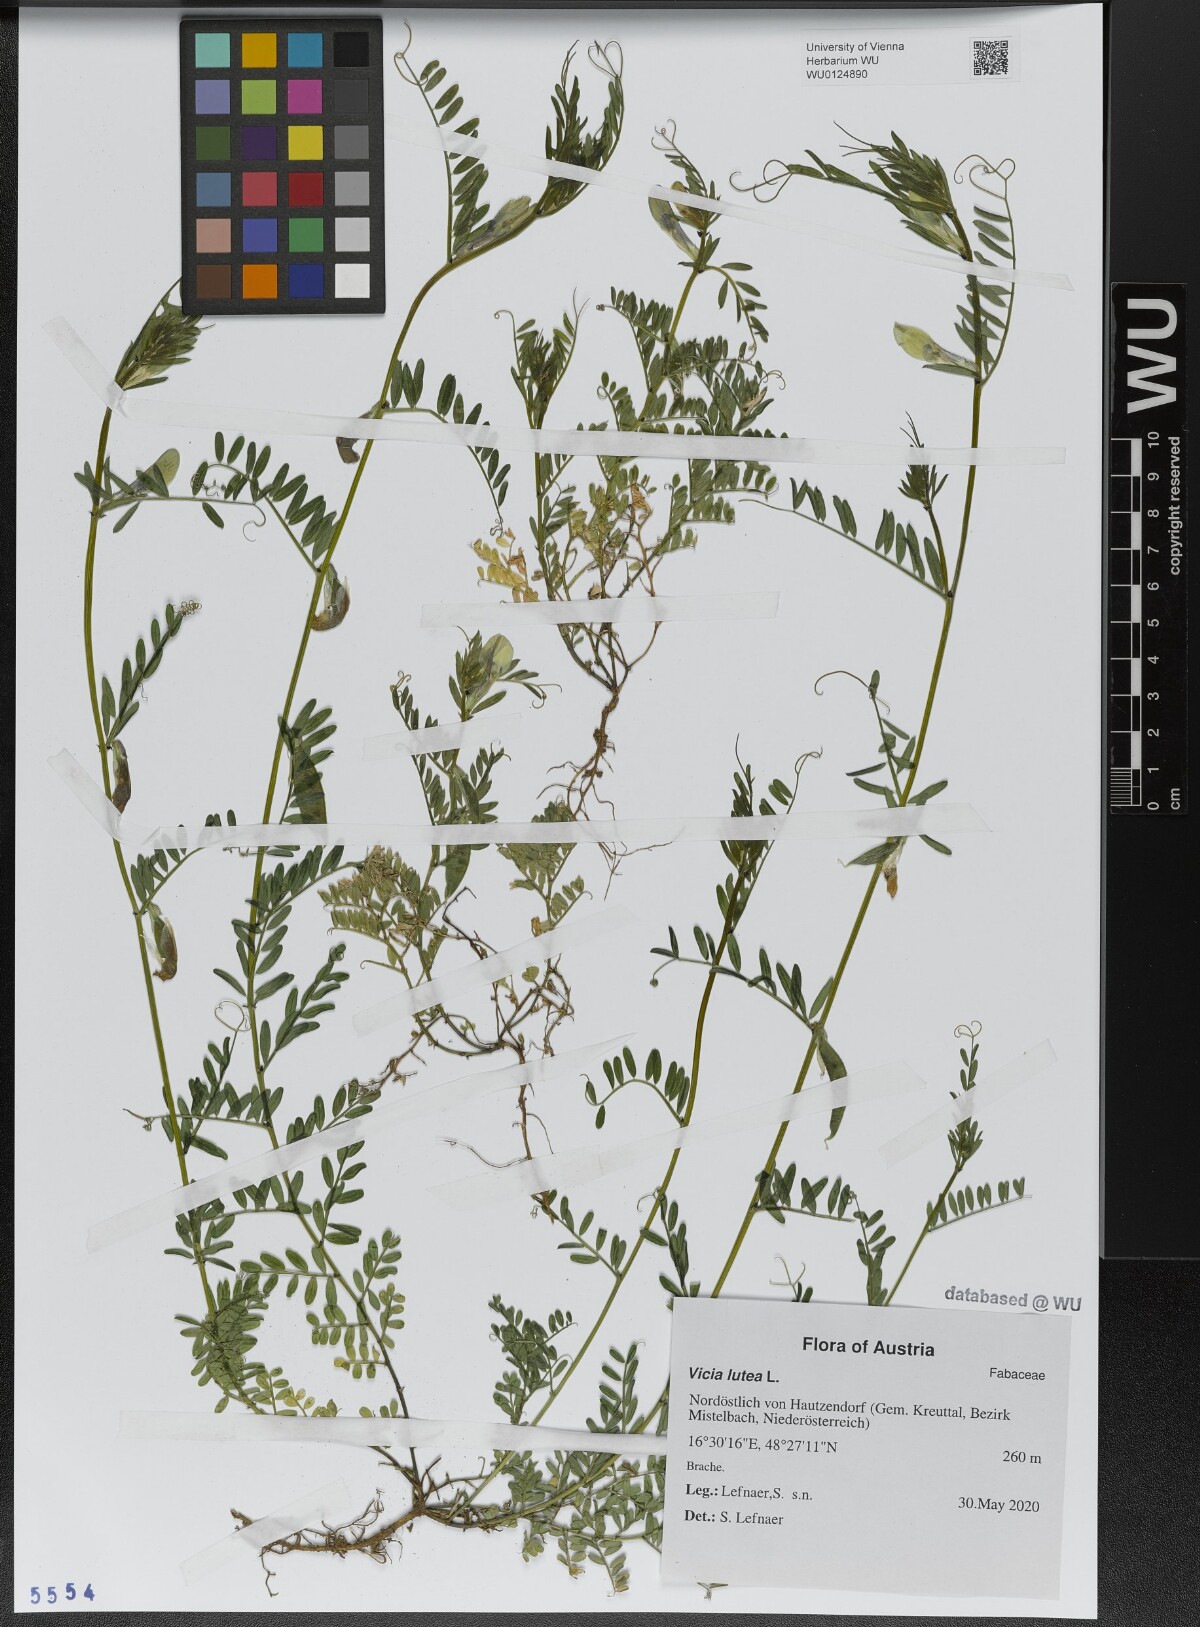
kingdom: Plantae
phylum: Tracheophyta
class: Magnoliopsida
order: Fabales
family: Fabaceae
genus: Vicia
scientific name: Vicia lutea
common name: Smooth yellow vetch
